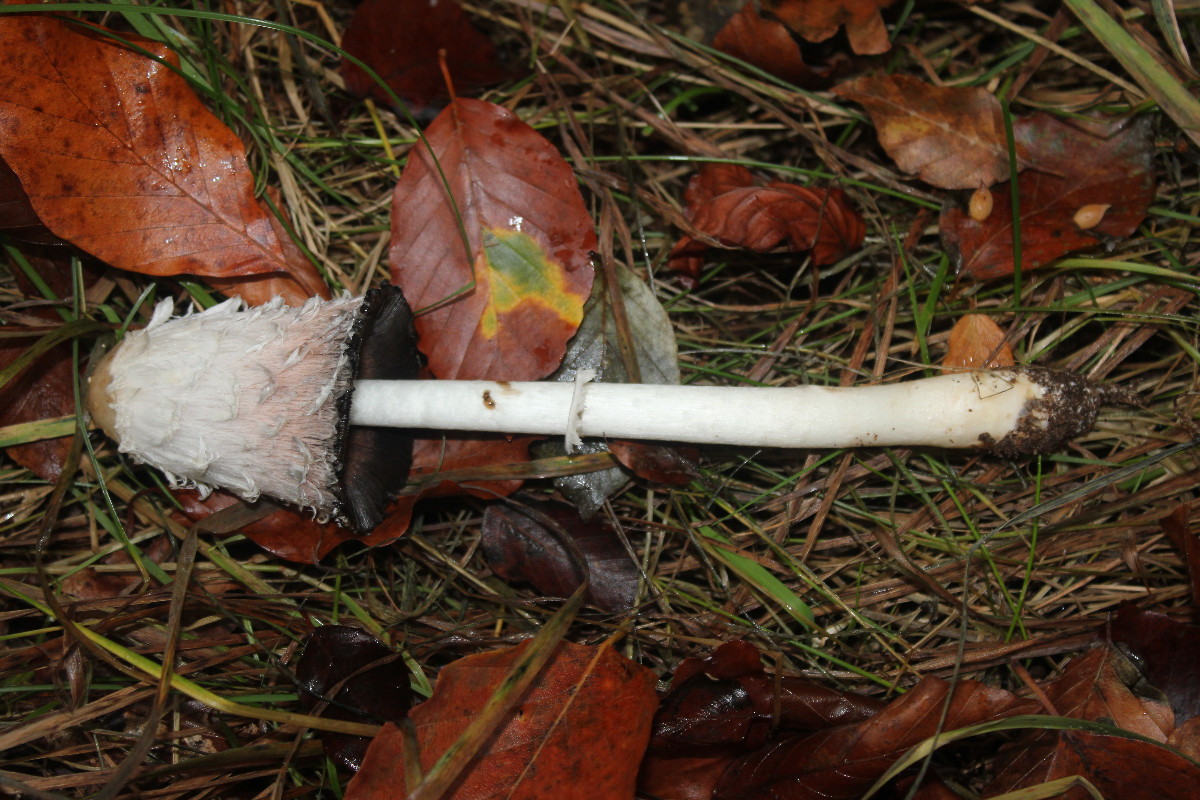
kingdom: Fungi
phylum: Basidiomycota
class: Agaricomycetes
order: Agaricales
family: Agaricaceae
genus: Coprinus
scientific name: Coprinus comatus
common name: stor parykhat
